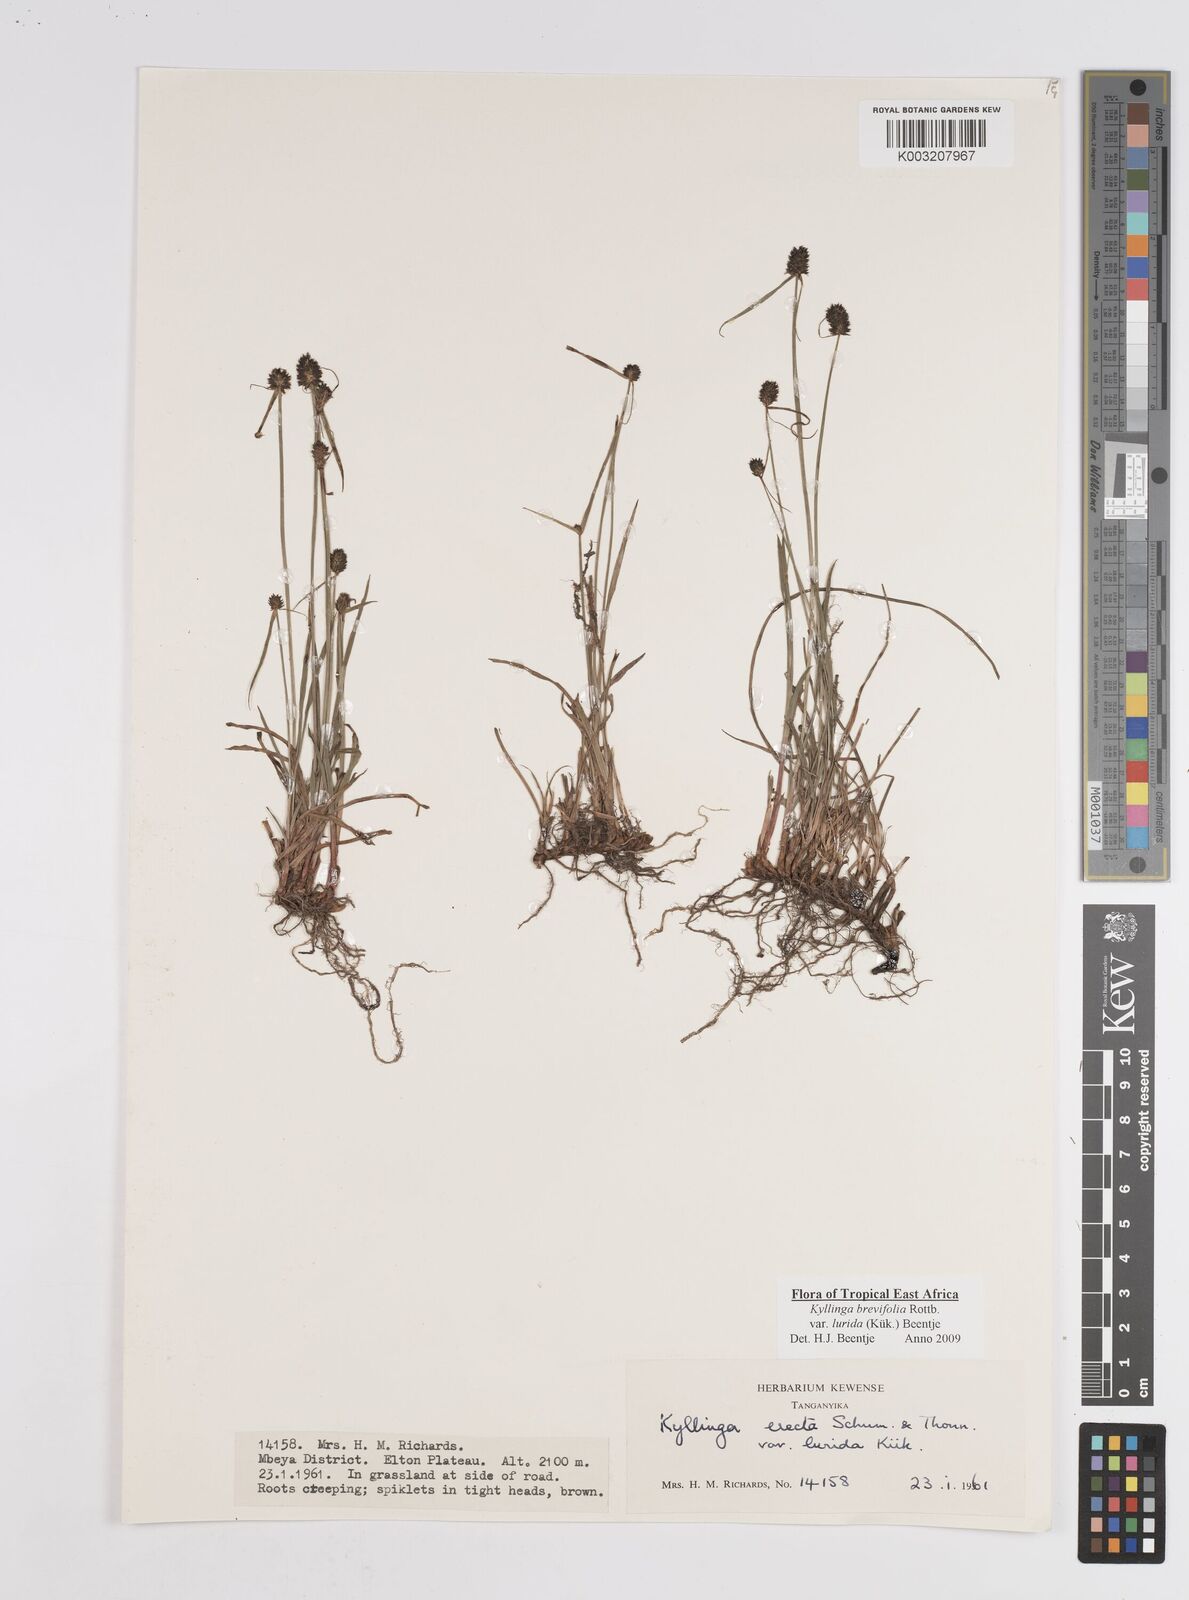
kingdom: Plantae
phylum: Tracheophyta
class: Liliopsida
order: Poales
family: Cyperaceae
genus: Cyperus
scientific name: Cyperus erectus
